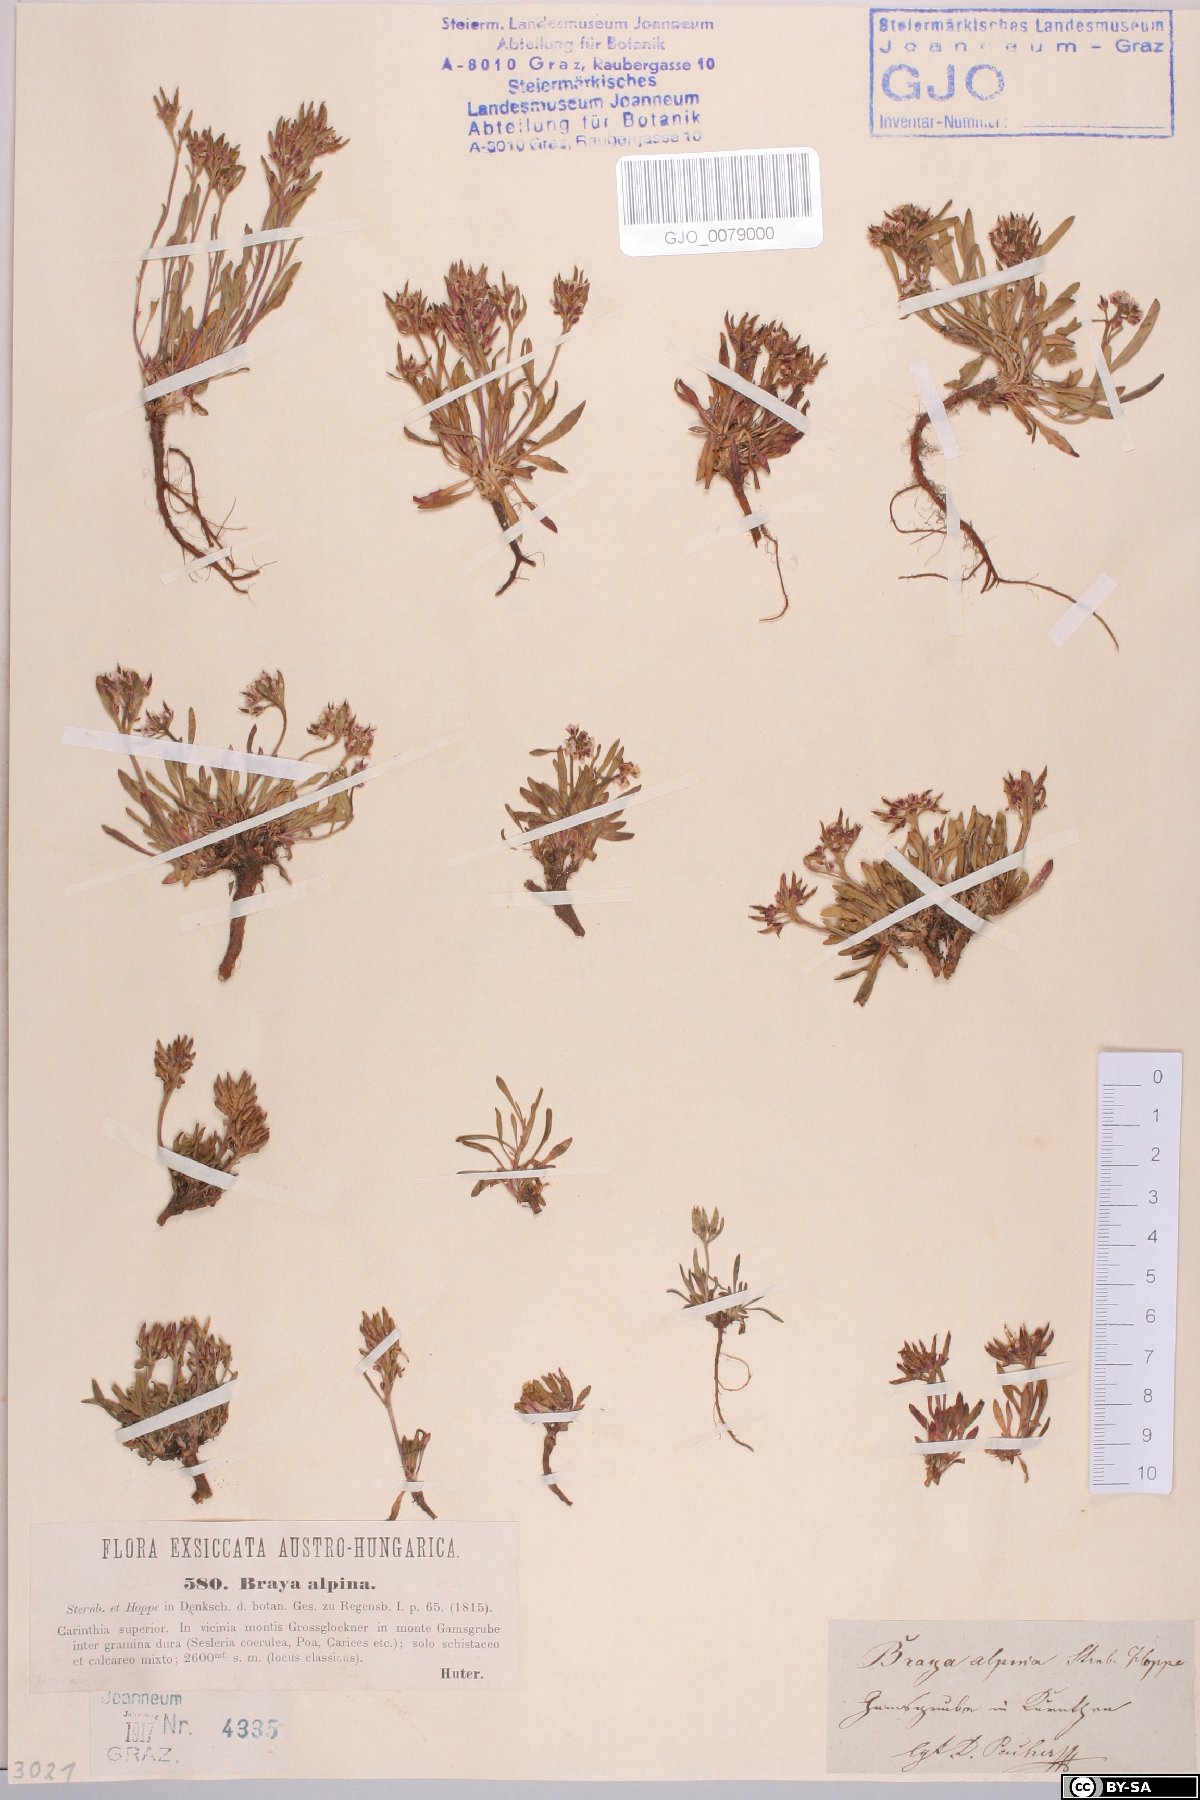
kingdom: Plantae
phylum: Tracheophyta
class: Magnoliopsida
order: Brassicales
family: Brassicaceae
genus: Braya
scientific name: Braya alpina
